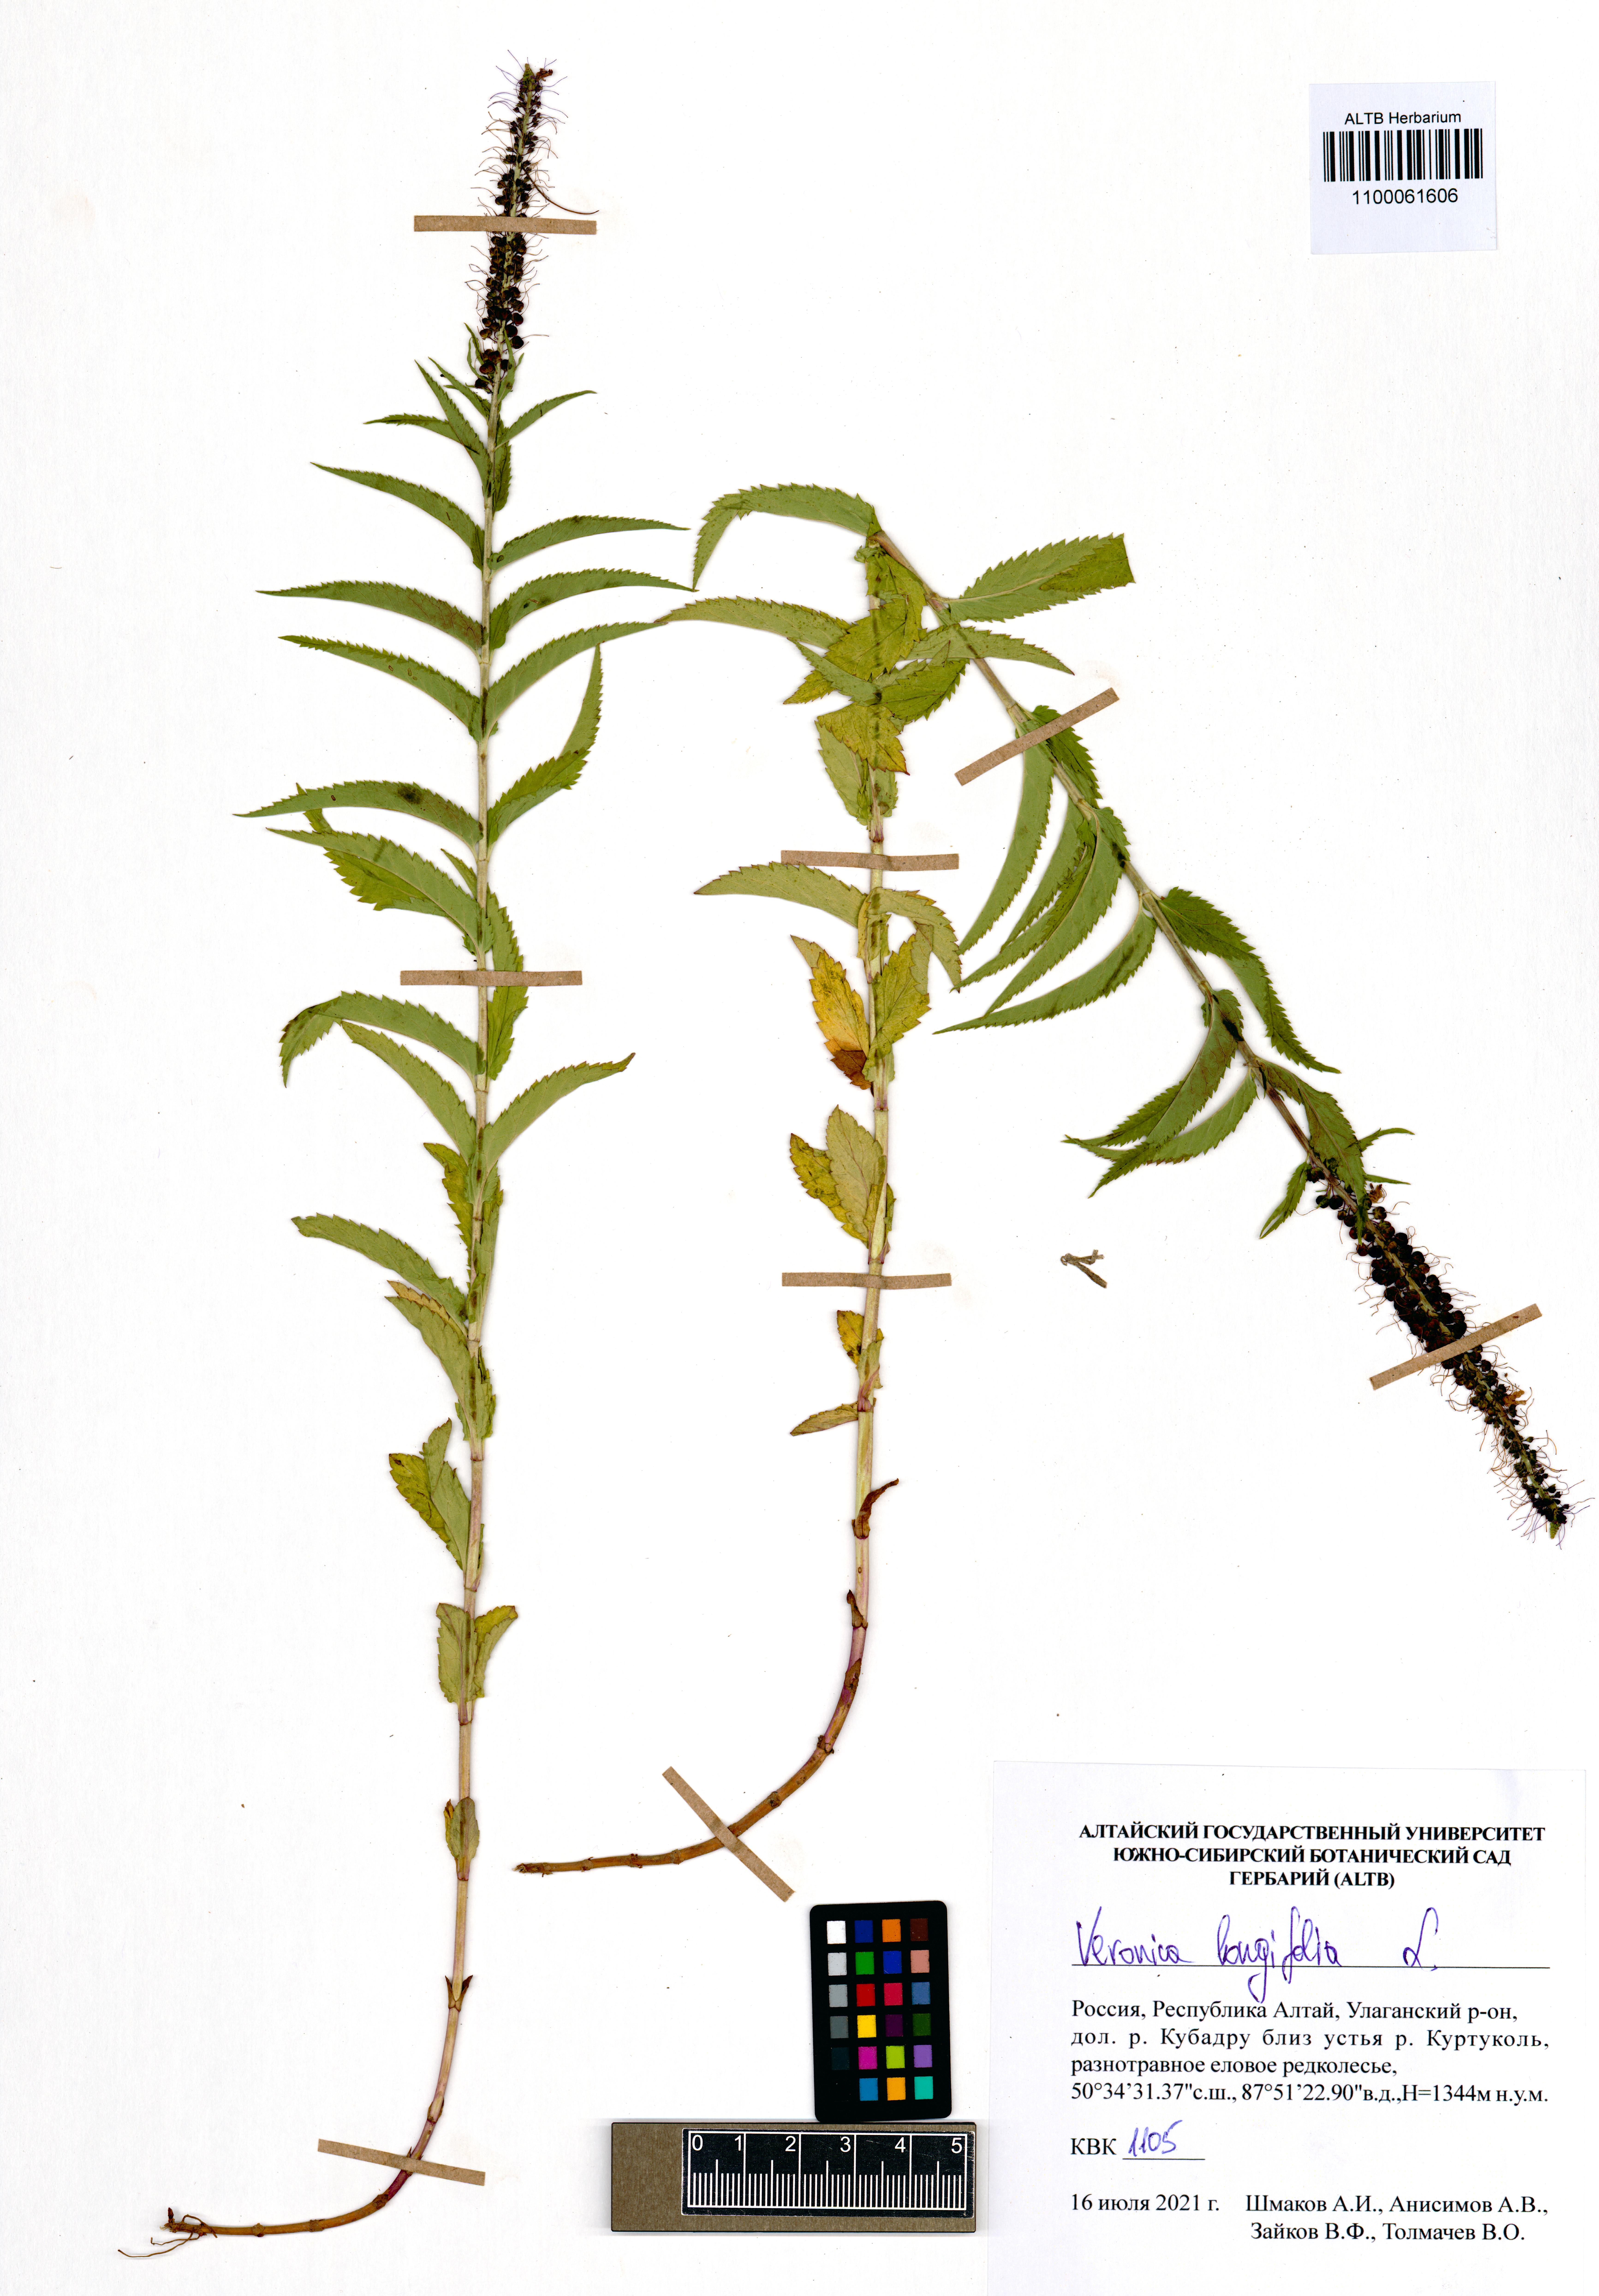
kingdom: Plantae
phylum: Tracheophyta
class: Magnoliopsida
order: Lamiales
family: Plantaginaceae
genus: Veronica
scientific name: Veronica longifolia
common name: Garden speedwell
